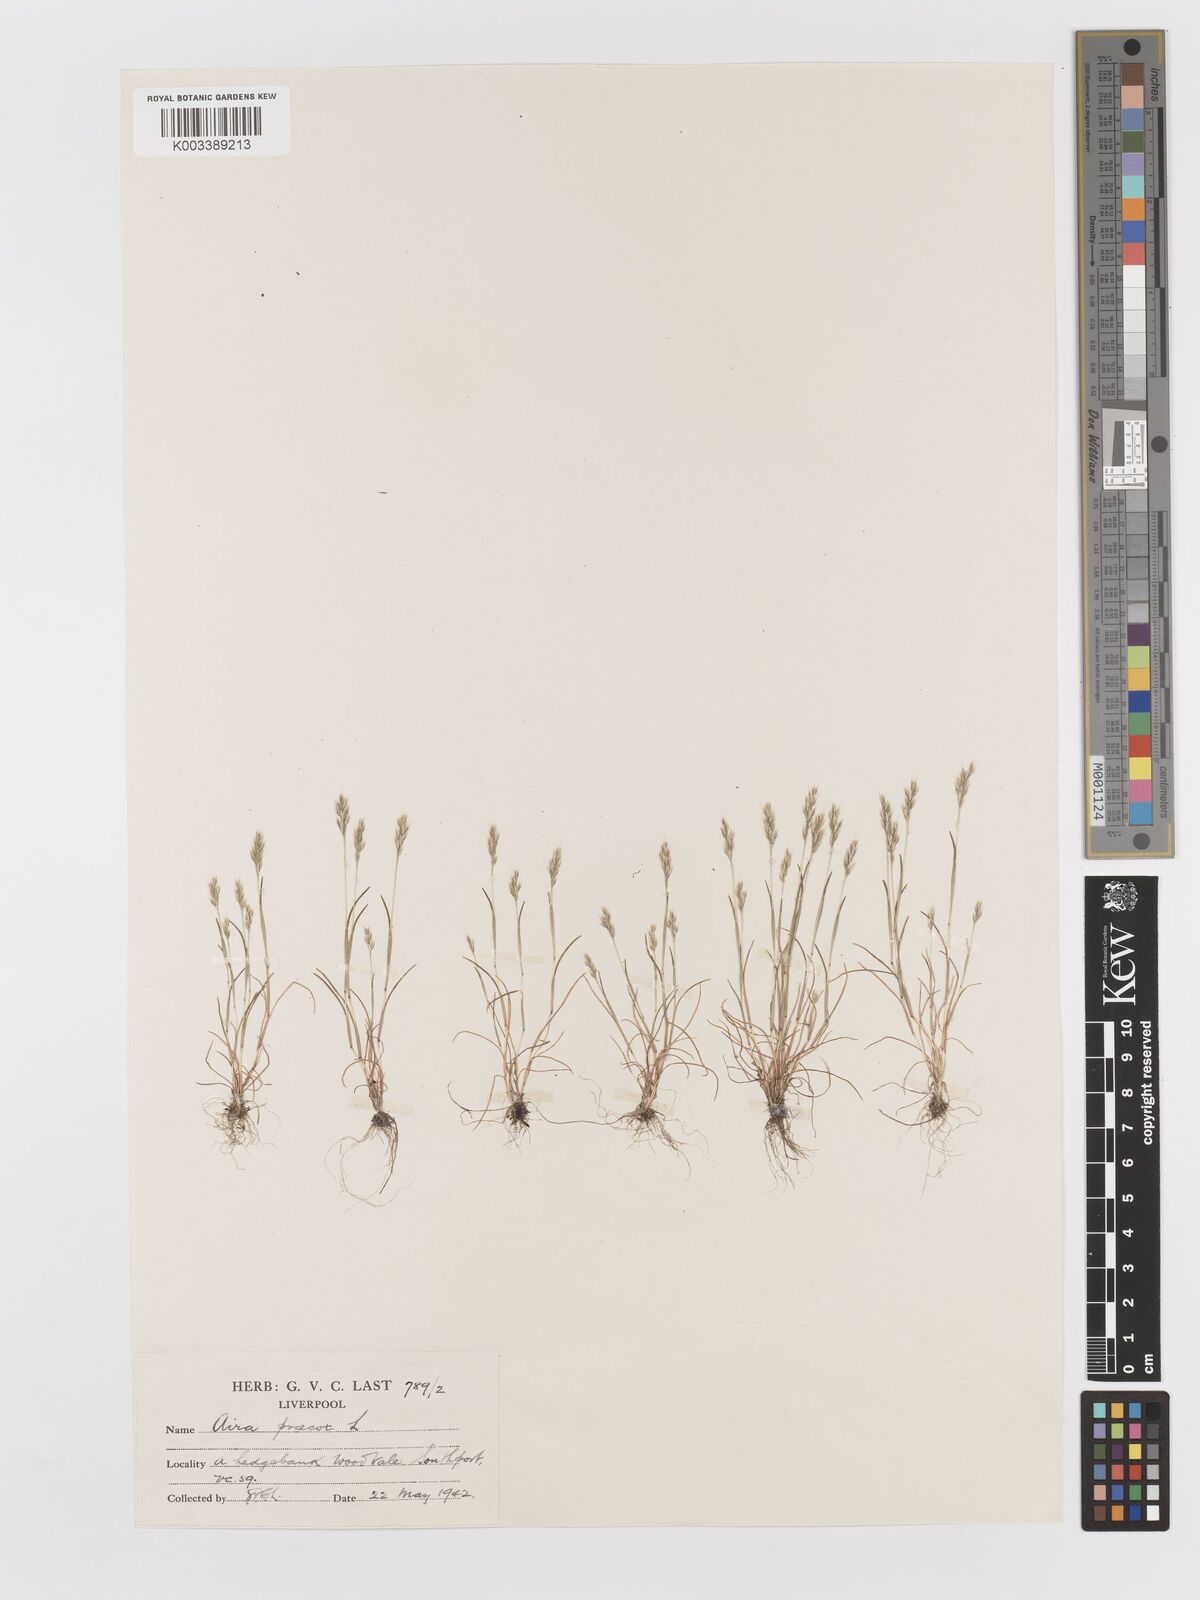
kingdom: Plantae
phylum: Tracheophyta
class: Liliopsida
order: Poales
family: Poaceae
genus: Aira
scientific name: Aira praecox
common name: Early hair-grass
